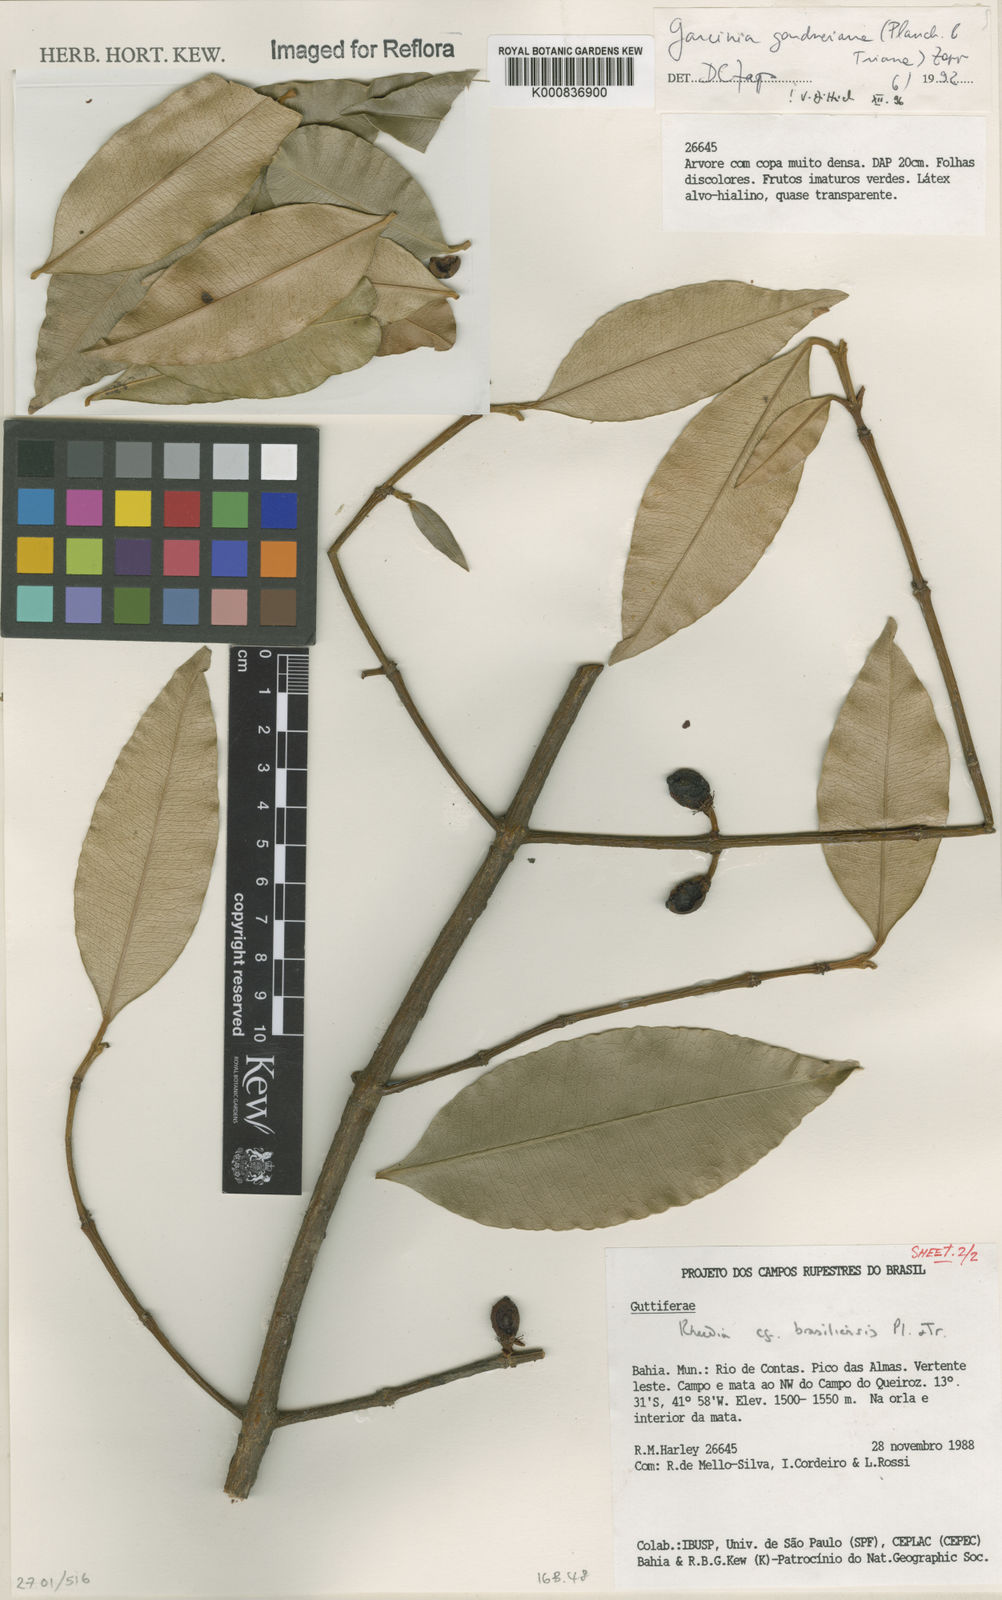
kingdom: Plantae
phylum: Tracheophyta
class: Magnoliopsida
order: Malpighiales
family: Clusiaceae
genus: Garcinia
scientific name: Garcinia gardneriana
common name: Achacha
